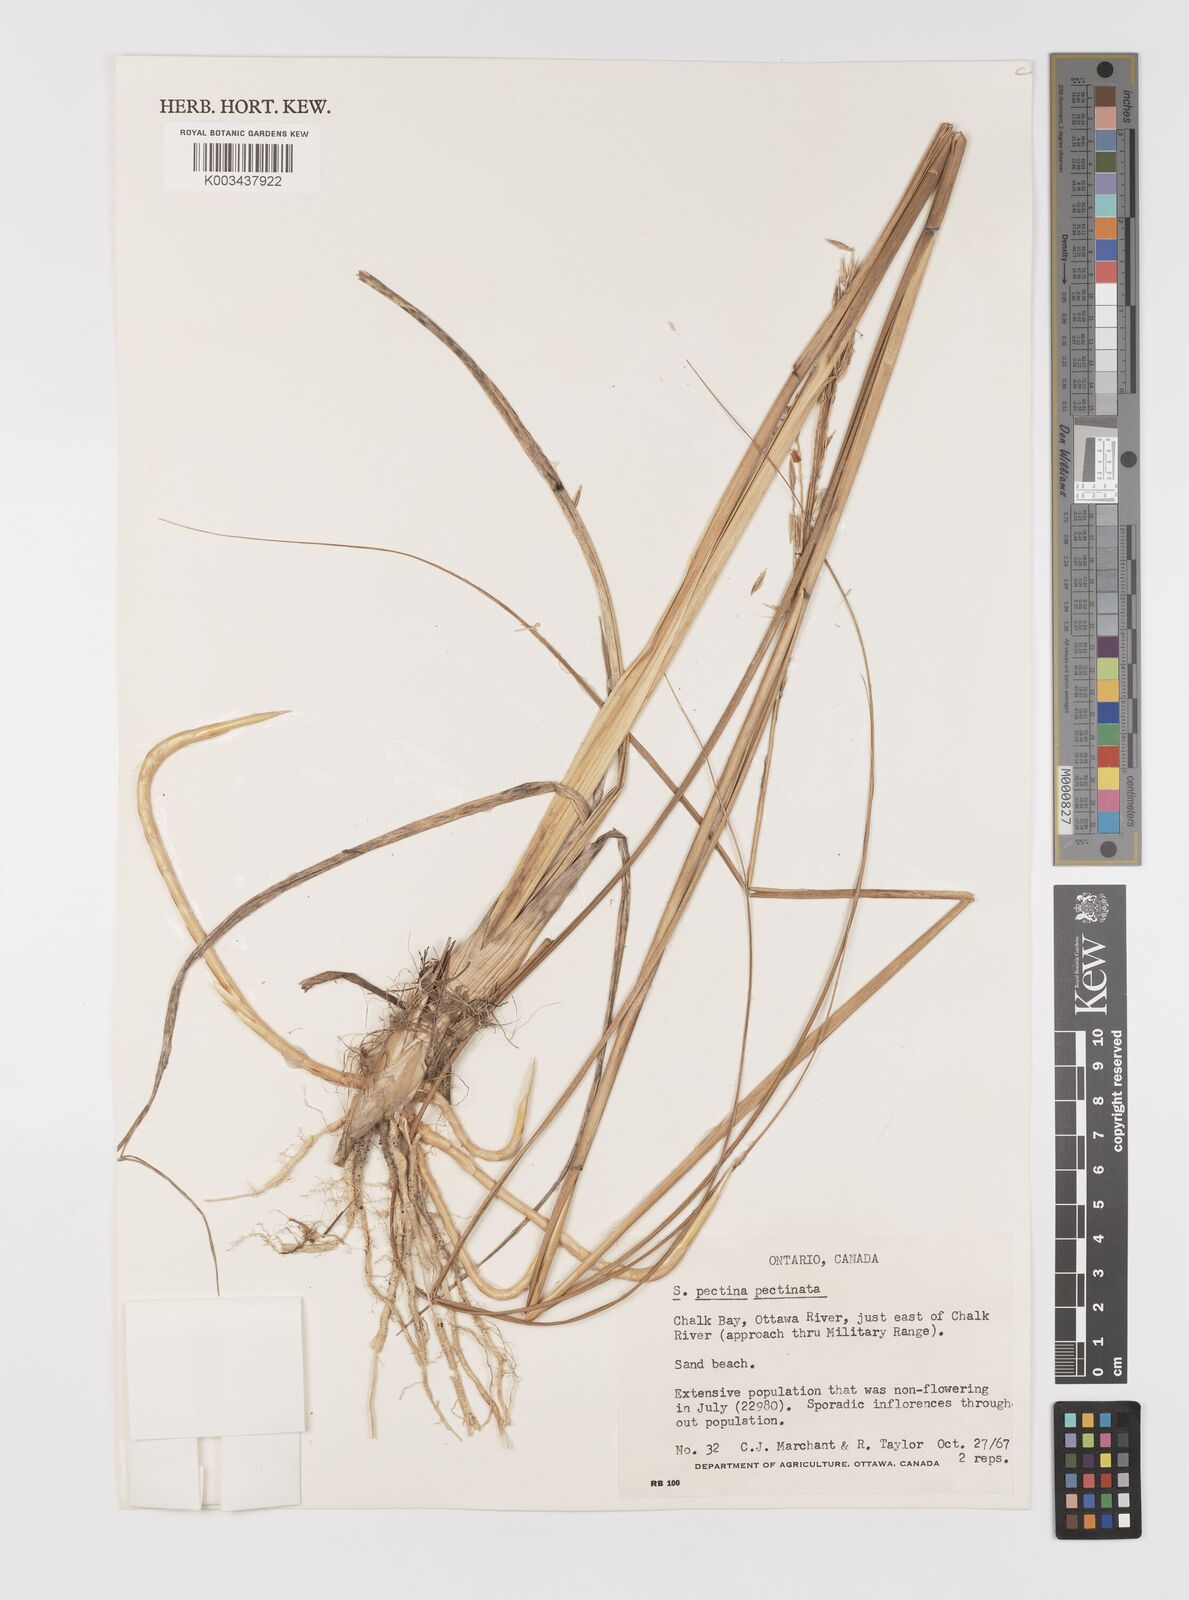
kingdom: Plantae
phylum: Tracheophyta
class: Liliopsida
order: Poales
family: Poaceae
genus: Sporobolus
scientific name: Sporobolus michauxianus
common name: Freshwater cordgrass
